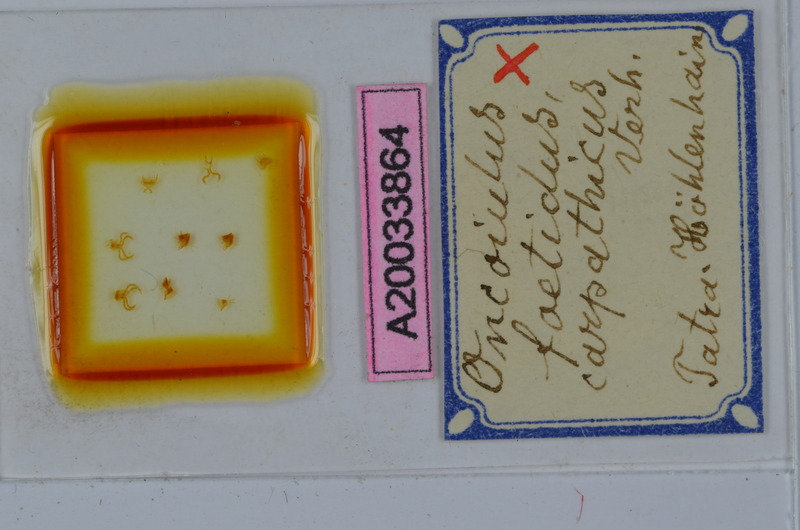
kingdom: Animalia
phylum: Arthropoda
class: Diplopoda
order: Julida
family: Julidae
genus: Unciger
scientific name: Unciger foetidus
